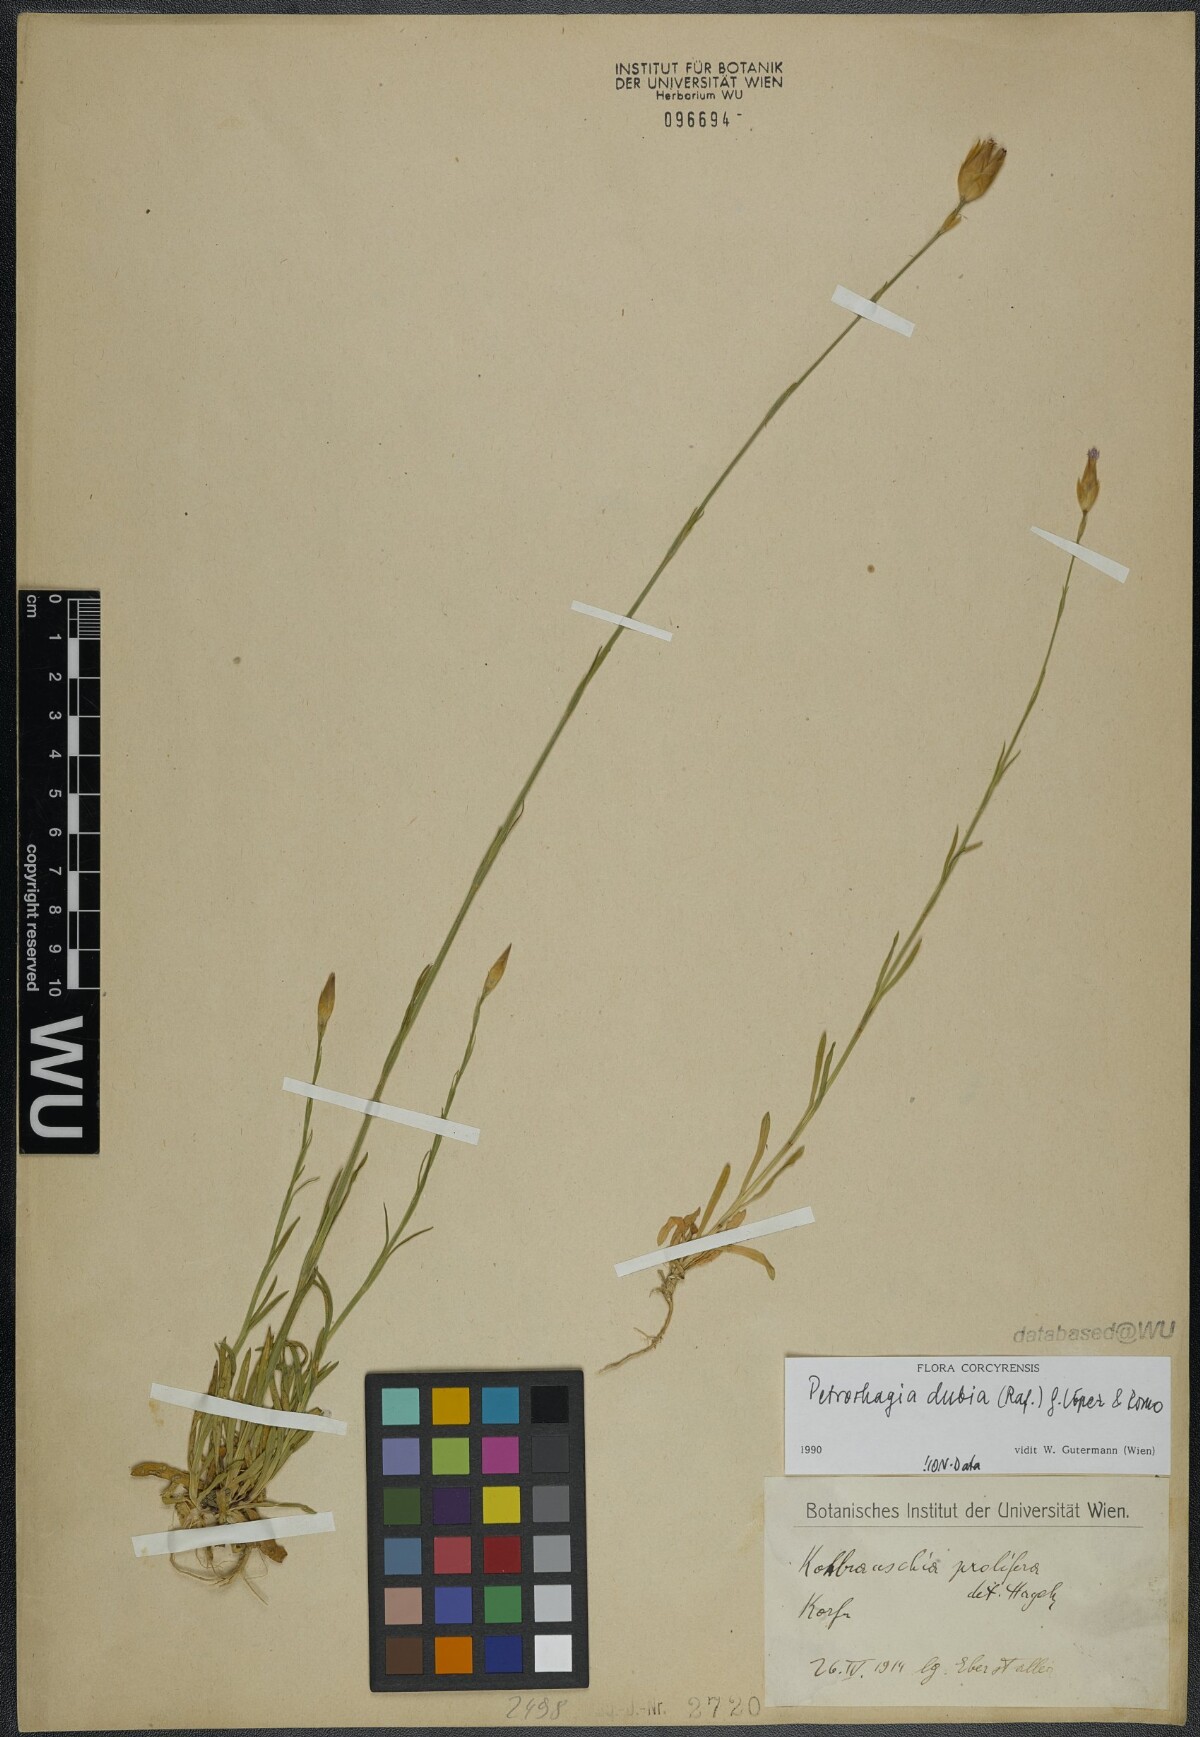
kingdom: Plantae
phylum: Tracheophyta
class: Magnoliopsida
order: Caryophyllales
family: Caryophyllaceae
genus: Petrorhagia
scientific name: Petrorhagia dubia
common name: Hairypink
